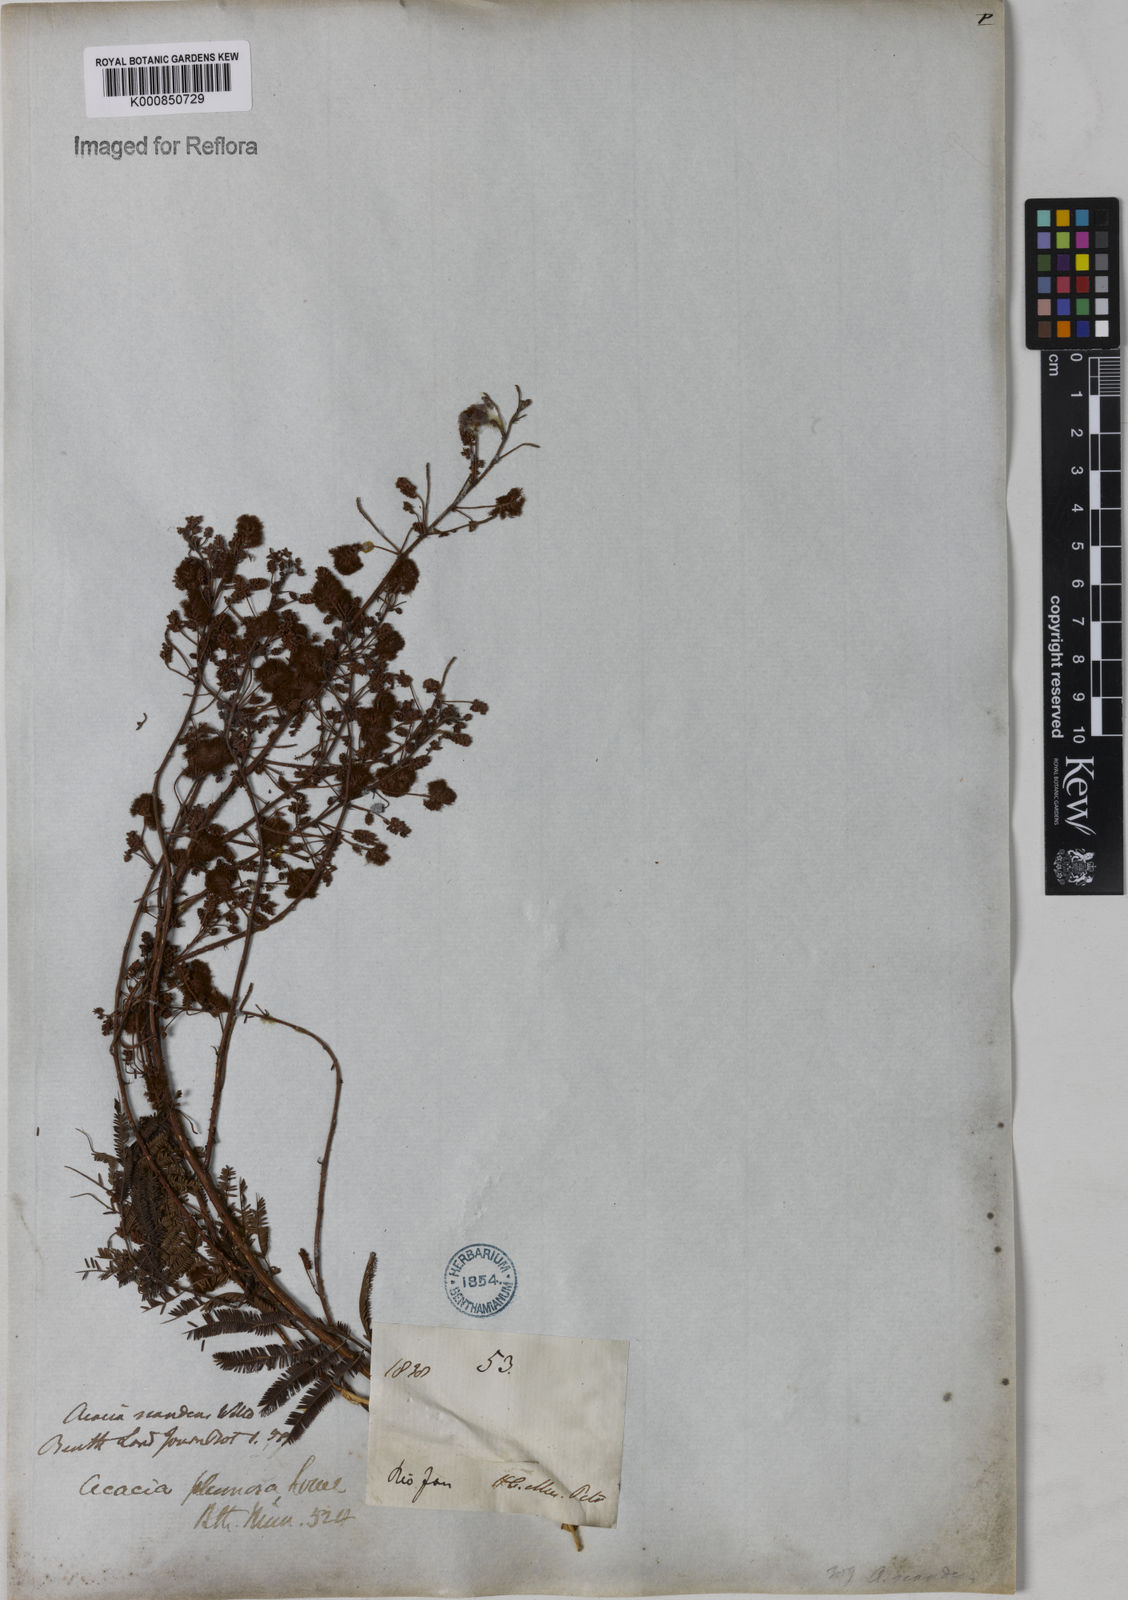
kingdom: Plantae
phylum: Tracheophyta
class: Magnoliopsida
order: Fabales
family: Fabaceae
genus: Senegalia
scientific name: Senegalia lowei
